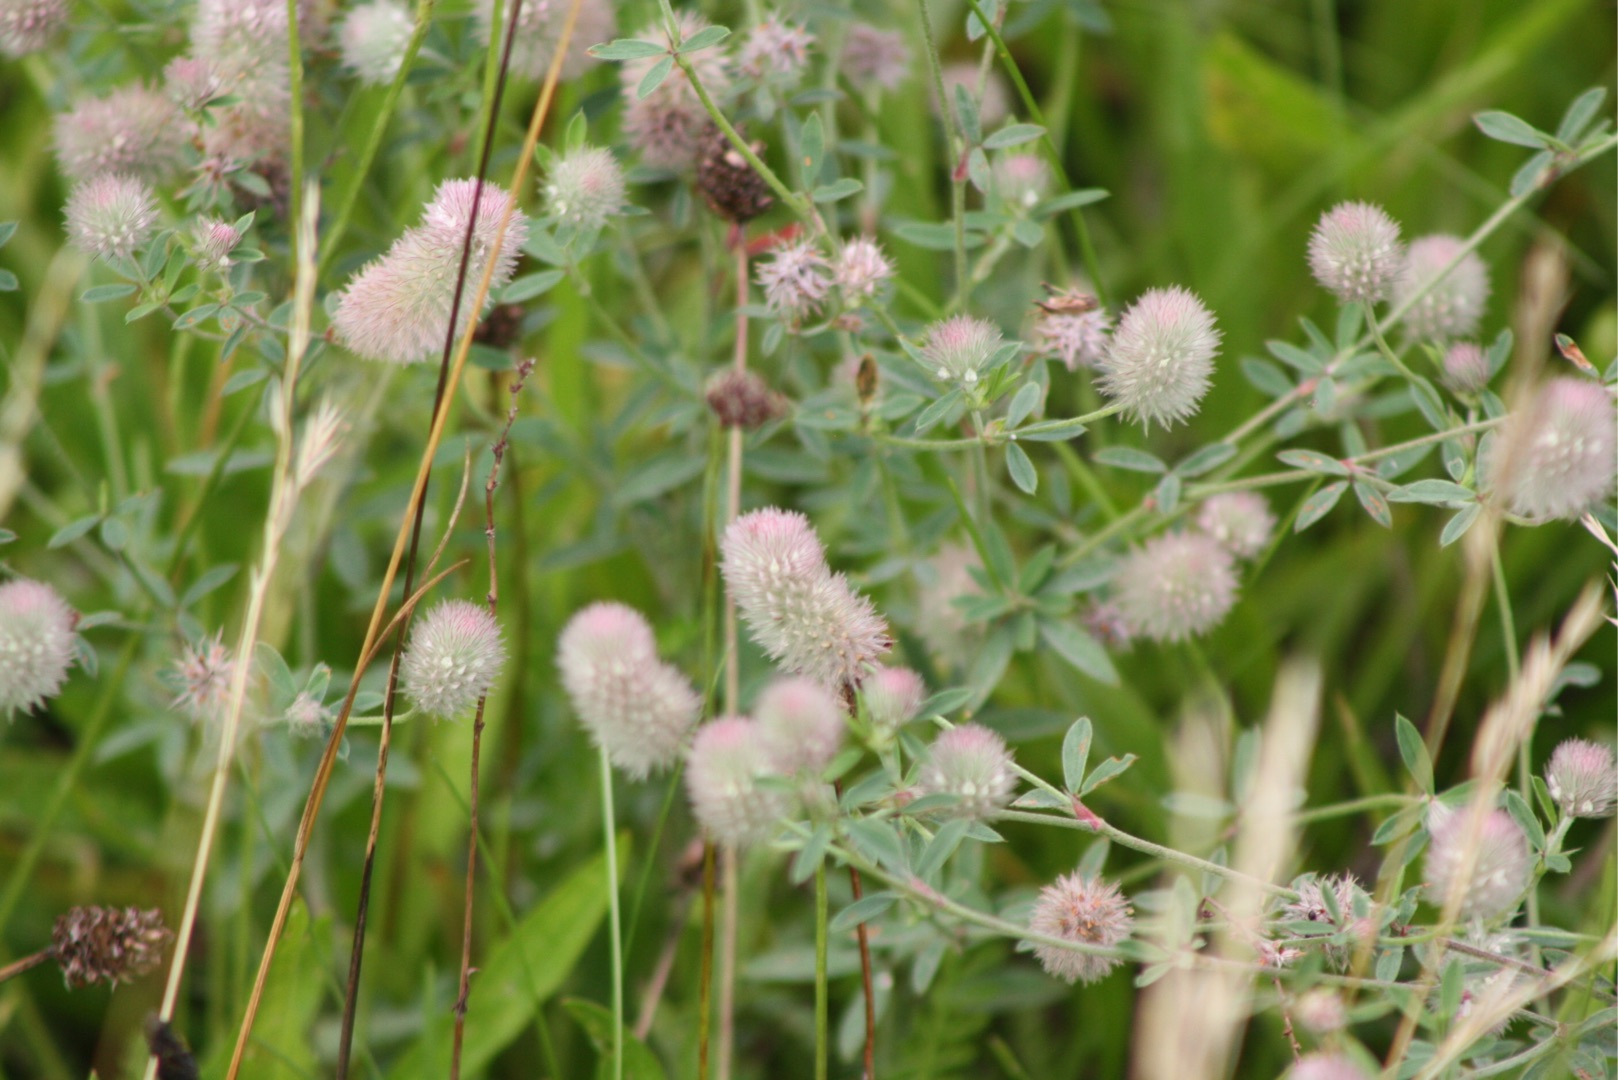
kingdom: Plantae
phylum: Tracheophyta
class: Magnoliopsida
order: Fabales
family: Fabaceae
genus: Trifolium
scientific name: Trifolium arvense
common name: Hare-kløver
